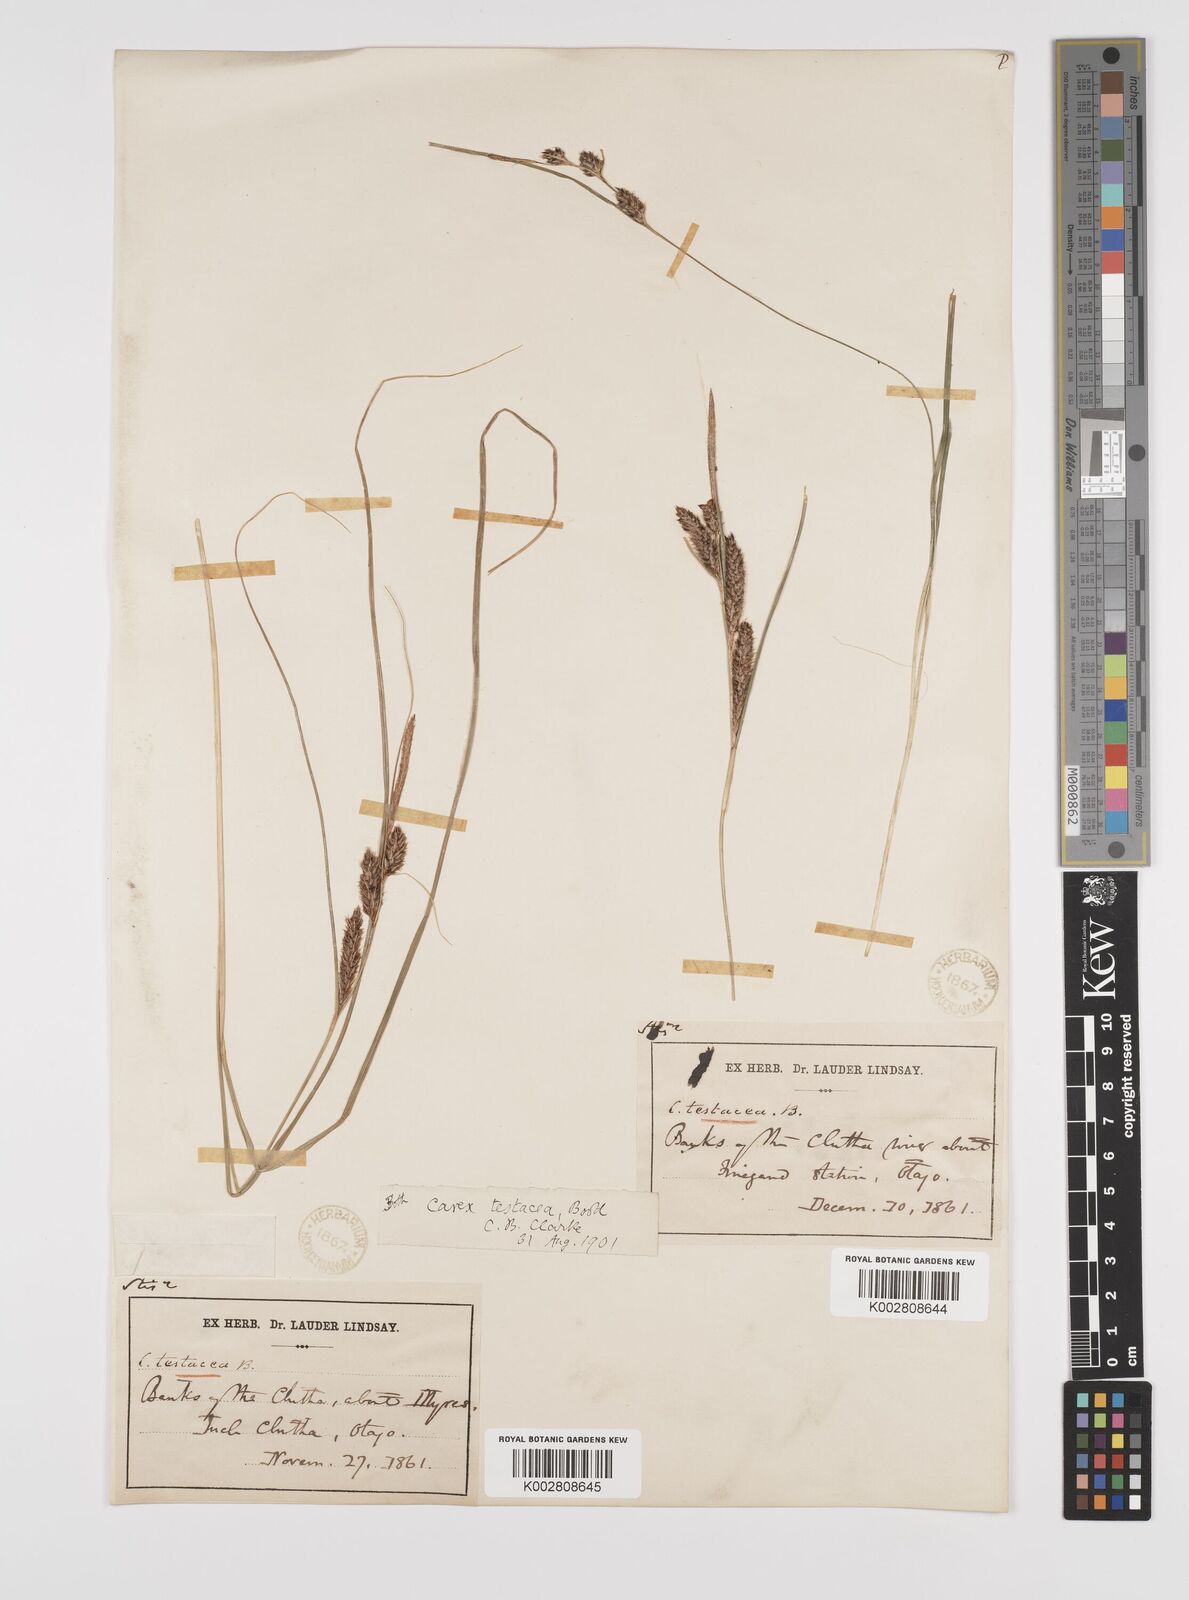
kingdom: Plantae
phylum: Tracheophyta
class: Liliopsida
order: Poales
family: Cyperaceae
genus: Carex
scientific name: Carex testacea
